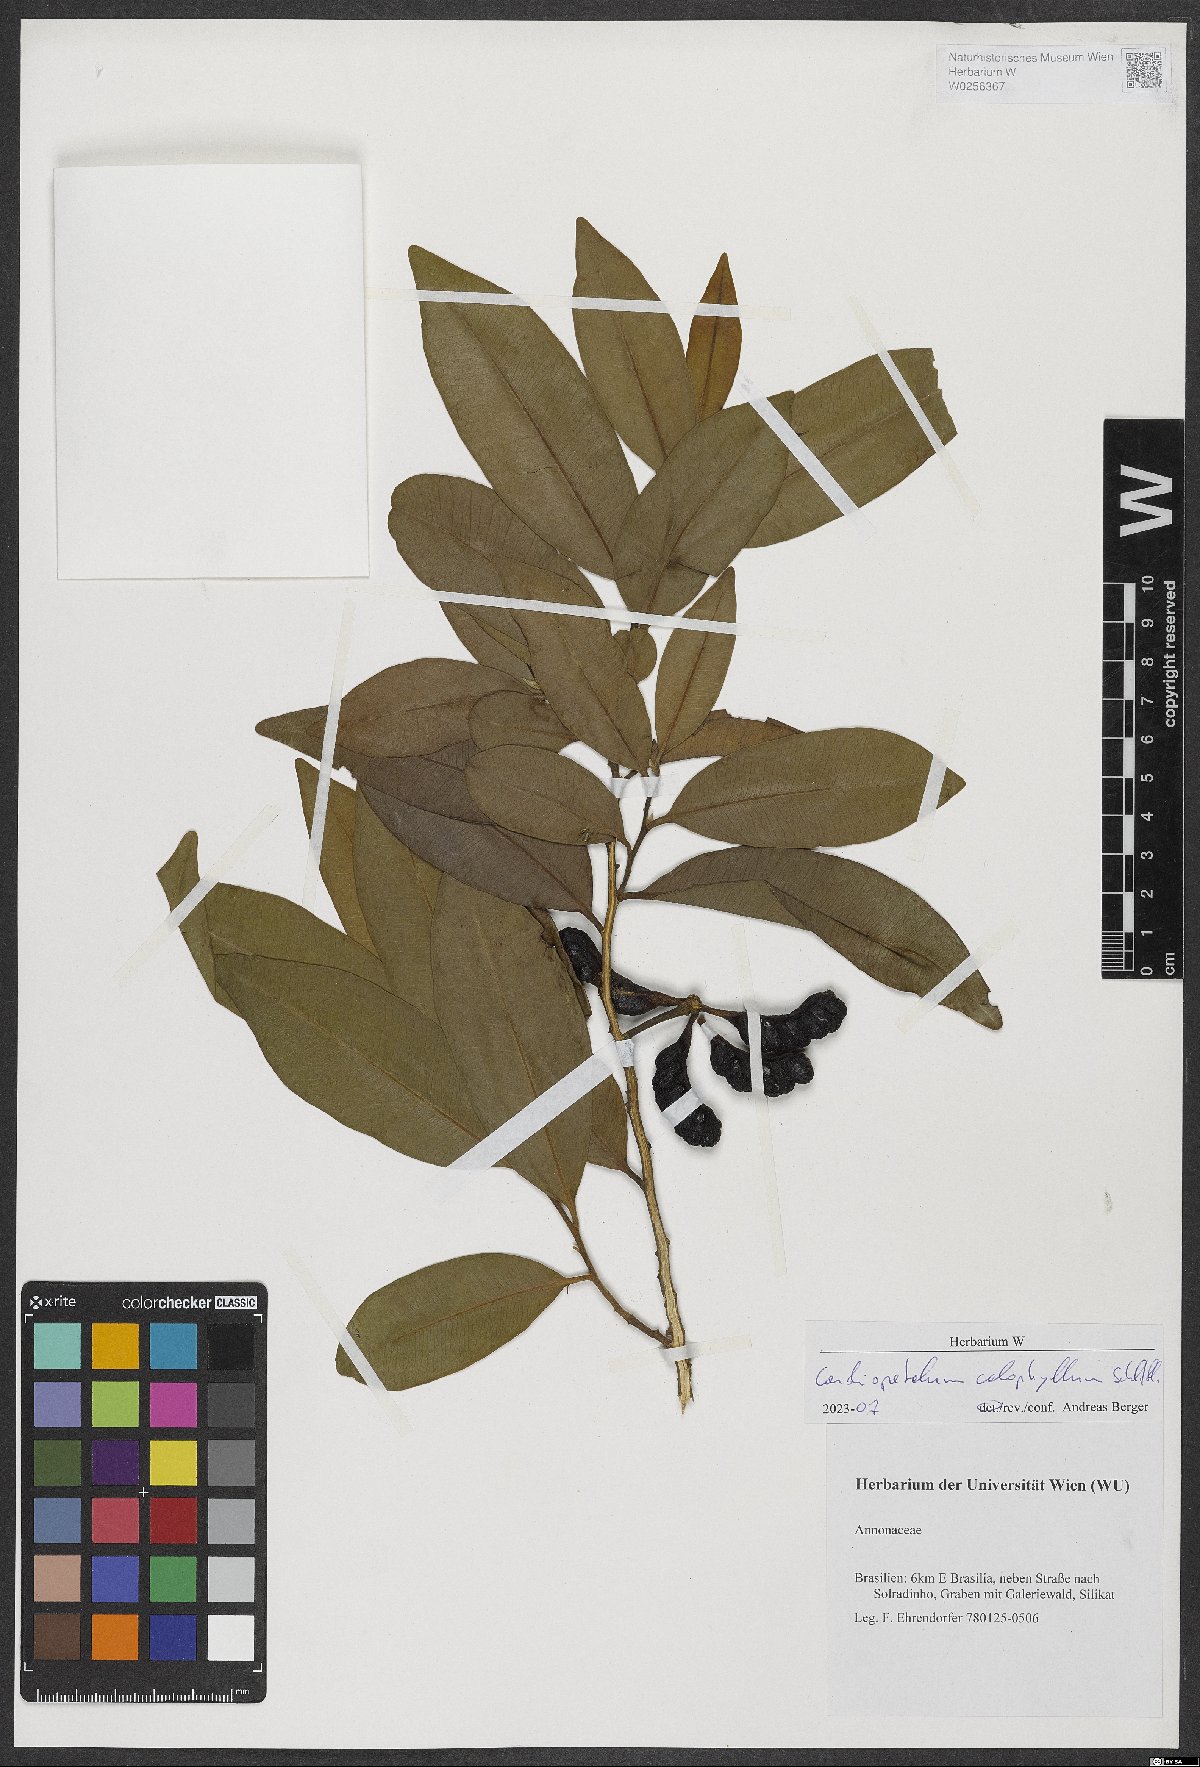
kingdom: Plantae
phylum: Tracheophyta
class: Magnoliopsida
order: Magnoliales
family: Annonaceae
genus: Cardiopetalum
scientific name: Cardiopetalum calophyllum
